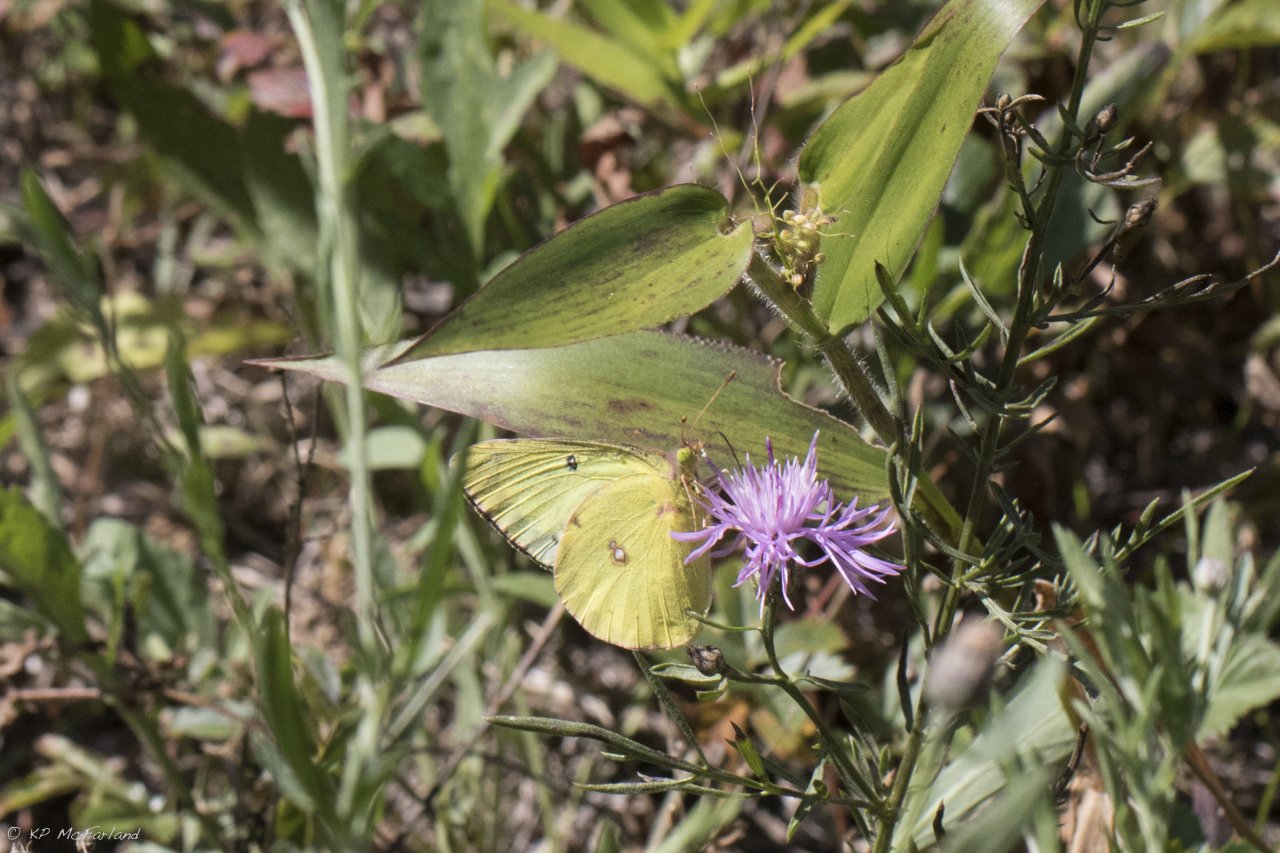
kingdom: Animalia
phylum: Arthropoda
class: Insecta
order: Lepidoptera
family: Pieridae
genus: Colias
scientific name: Colias philodice
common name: Clouded Sulphur
